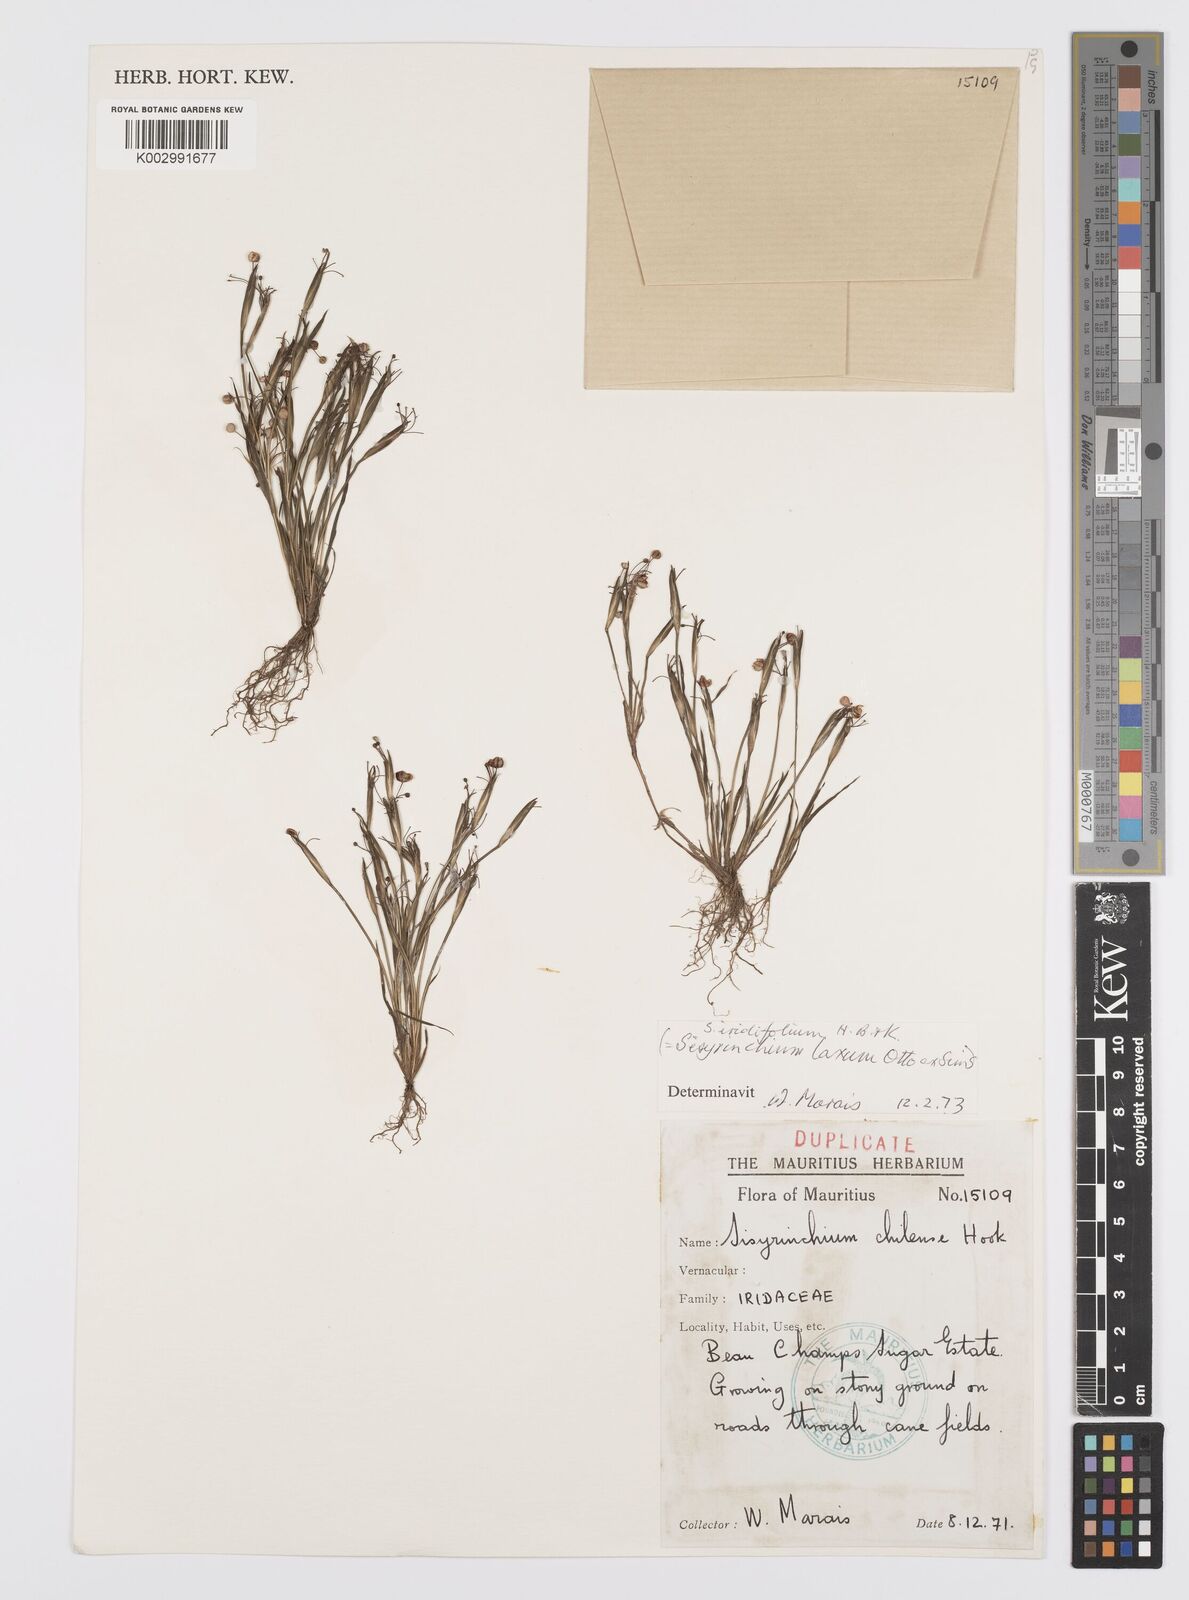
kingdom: Plantae
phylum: Tracheophyta
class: Liliopsida
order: Asparagales
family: Iridaceae
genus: Sisyrinchium
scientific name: Sisyrinchium micranthum
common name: Bermuda pigroot
